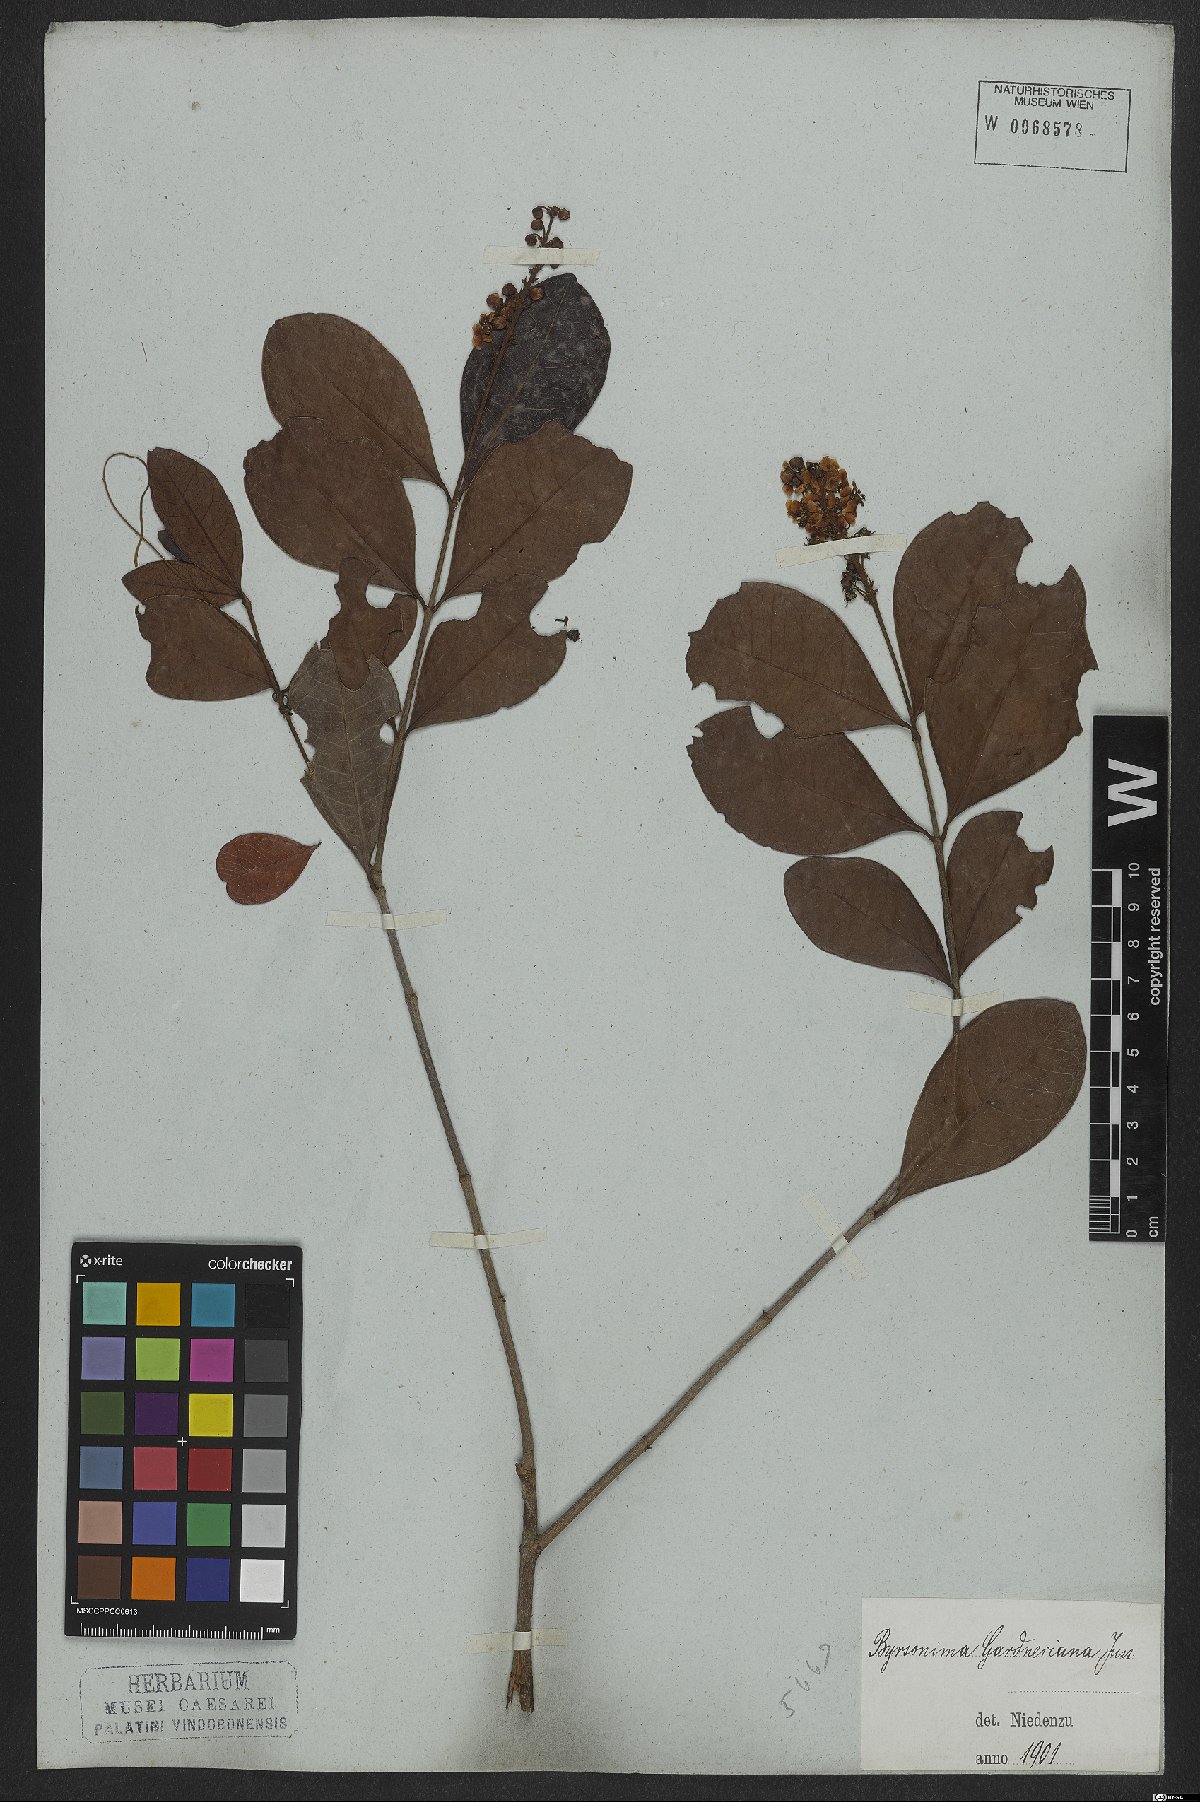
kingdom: Plantae
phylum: Tracheophyta
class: Magnoliopsida
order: Malpighiales
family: Malpighiaceae
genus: Byrsonima
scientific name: Byrsonima gardneriana
